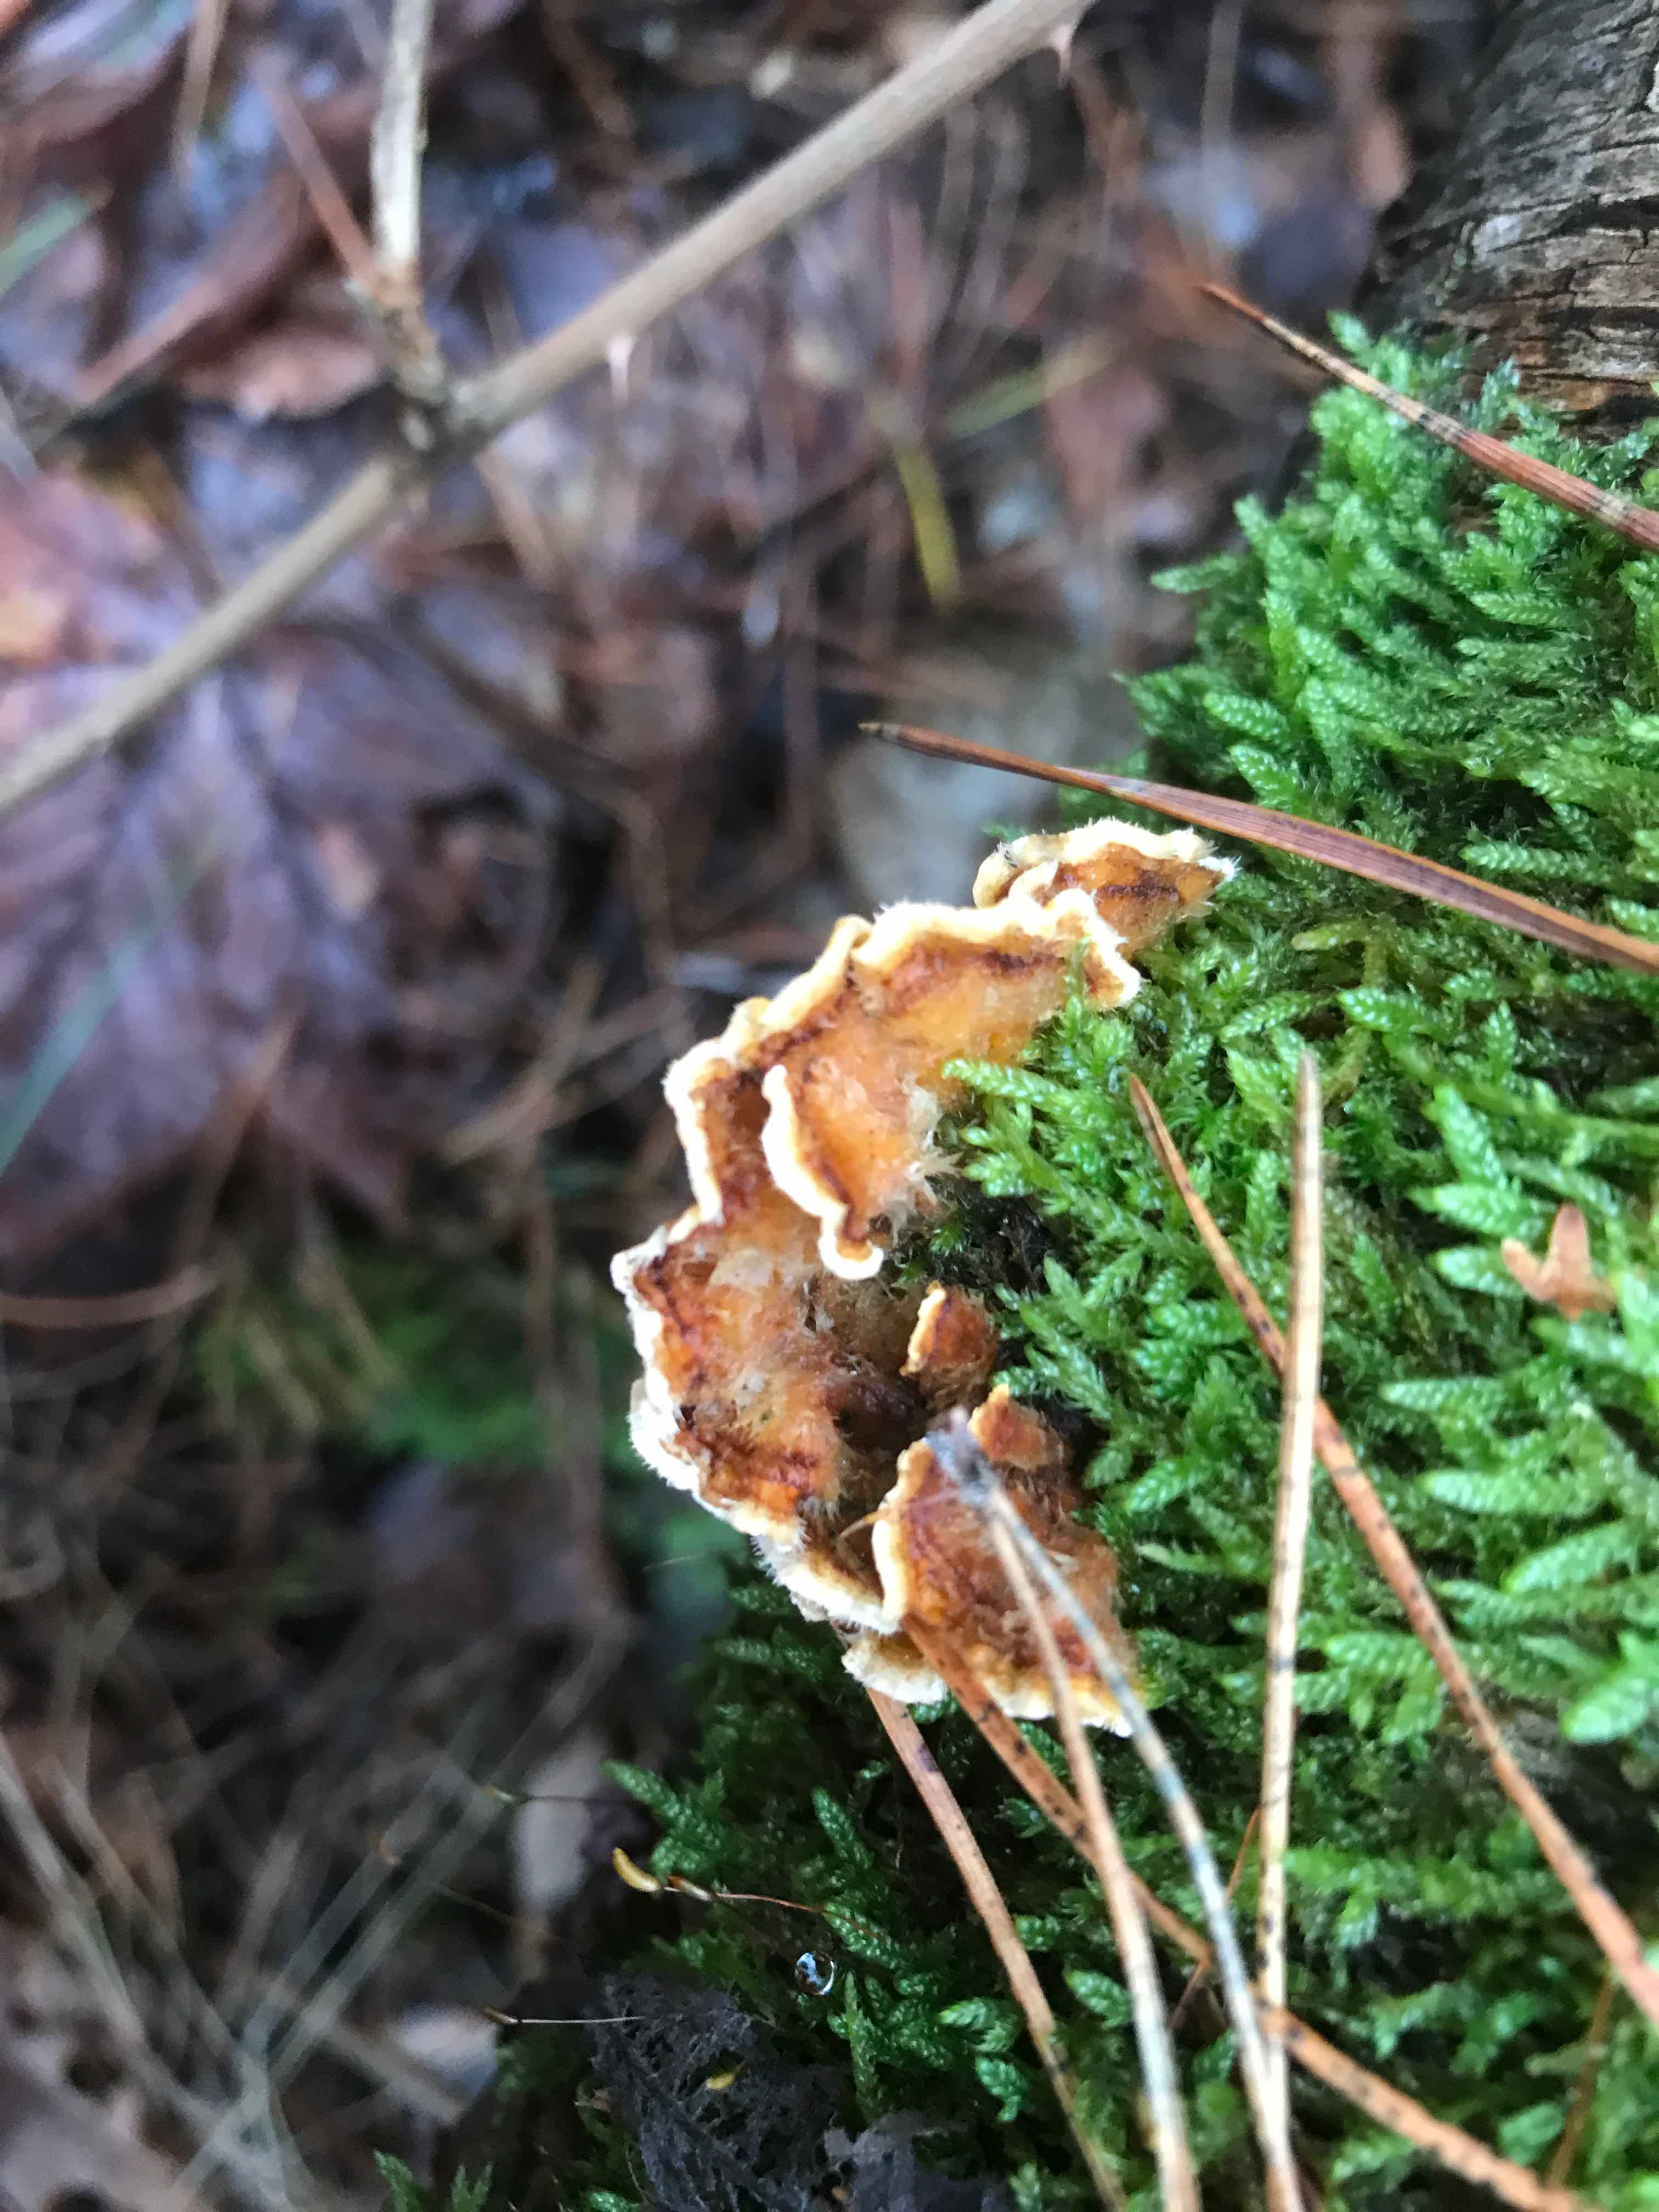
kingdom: Fungi
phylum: Basidiomycota
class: Agaricomycetes
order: Russulales
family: Stereaceae
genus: Stereum
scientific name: Stereum hirsutum
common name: håret lædersvamp
